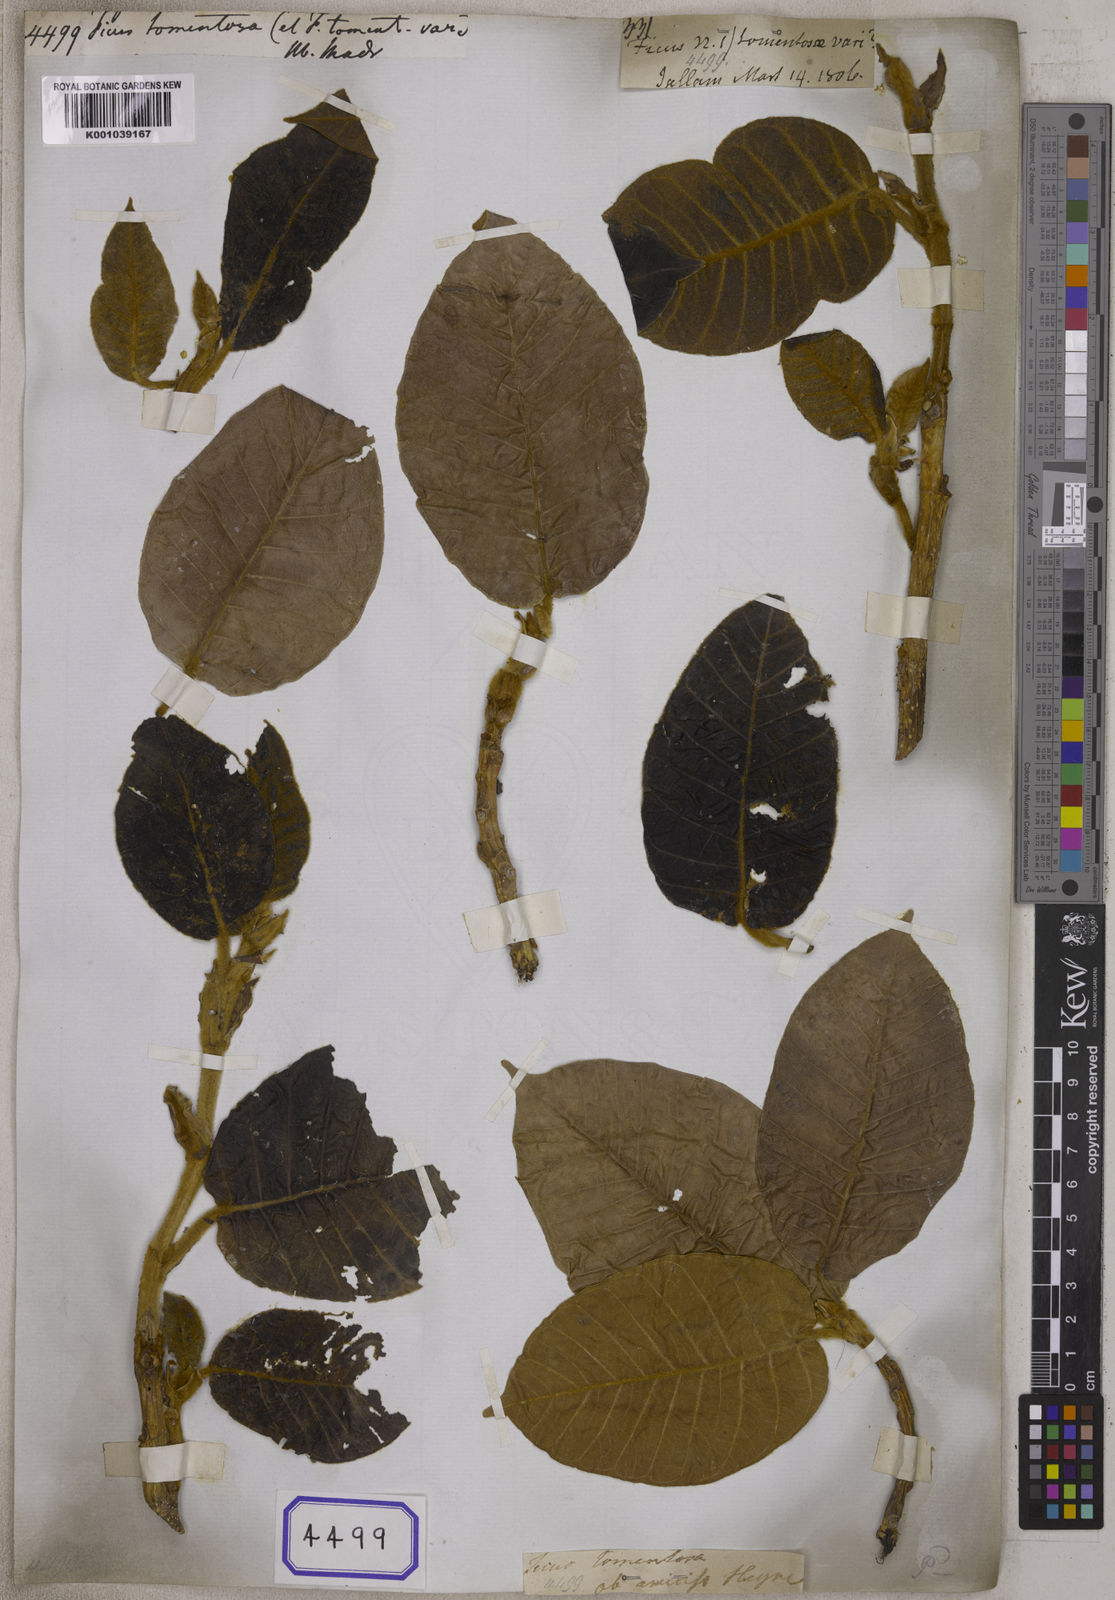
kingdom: Plantae
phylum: Tracheophyta
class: Magnoliopsida
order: Rosales
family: Moraceae
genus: Ficus
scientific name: Ficus
